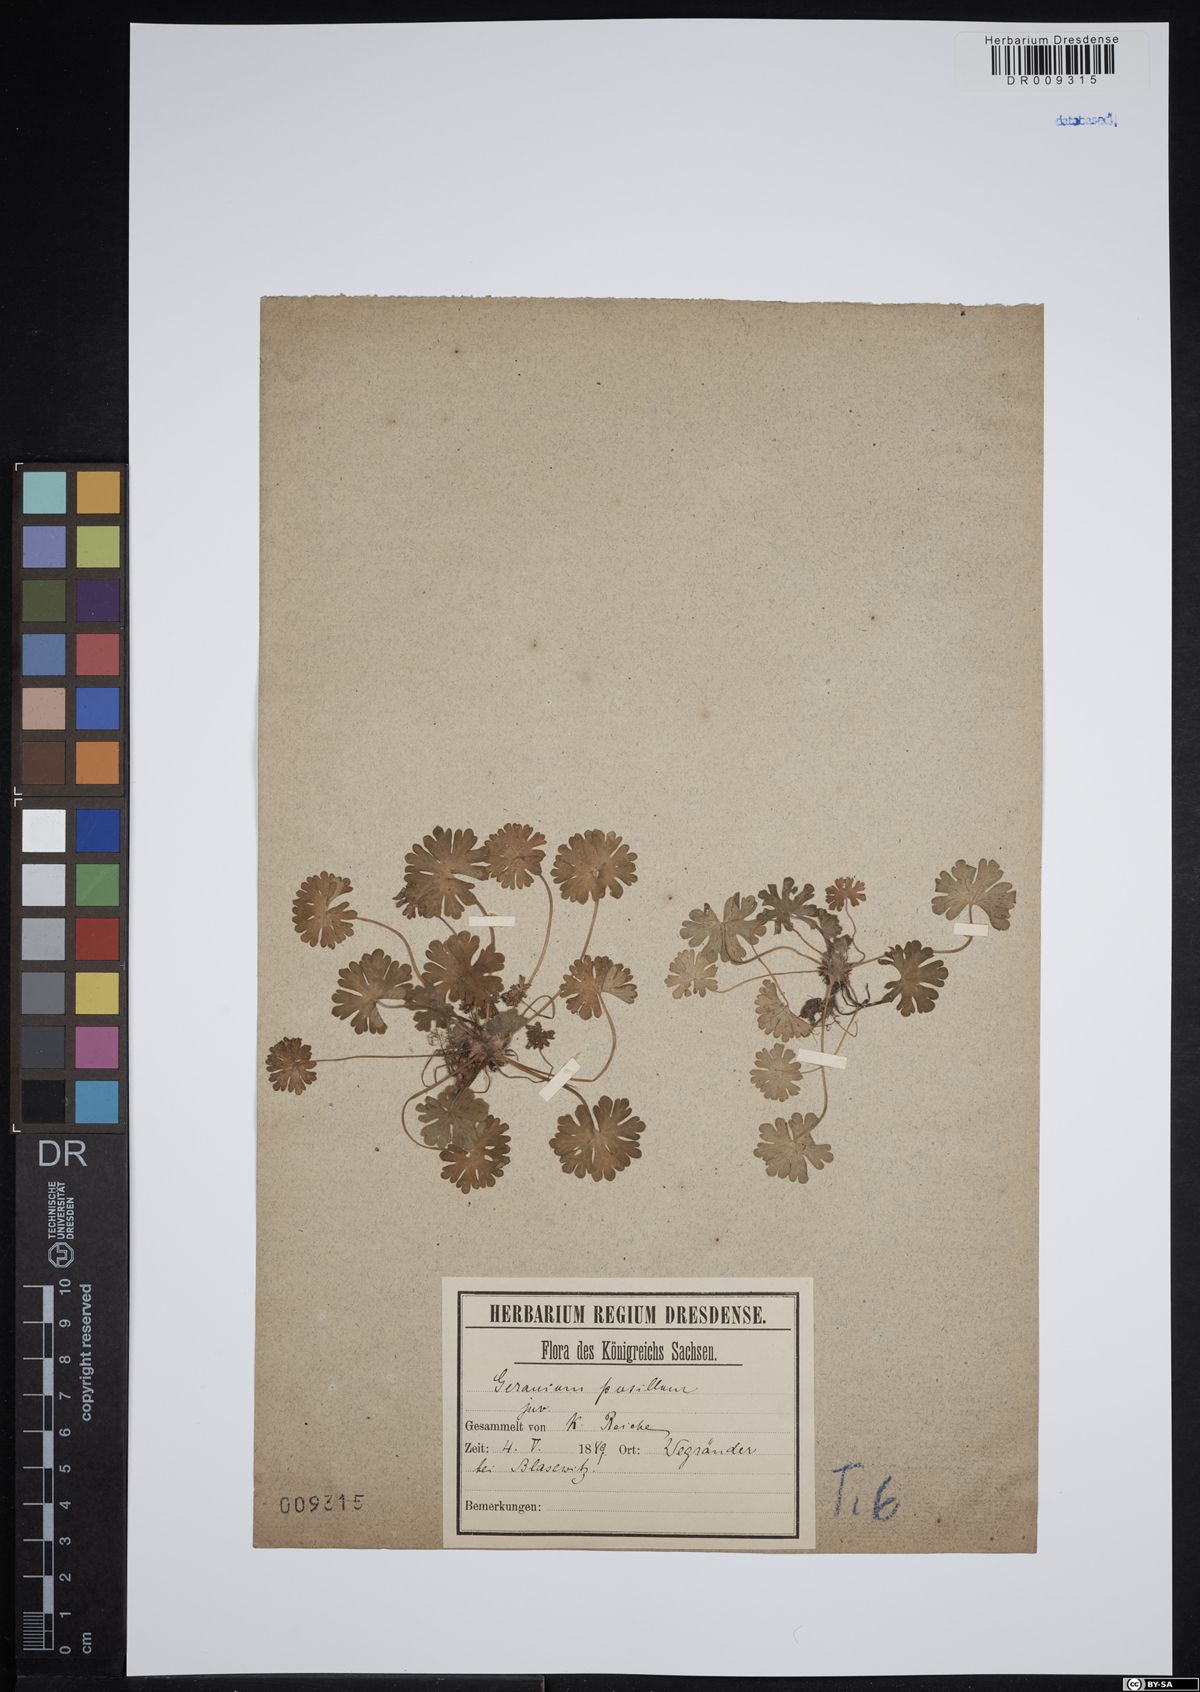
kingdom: Plantae
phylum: Tracheophyta
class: Magnoliopsida
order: Geraniales
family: Geraniaceae
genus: Geranium
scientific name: Geranium pusillum
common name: Small geranium
